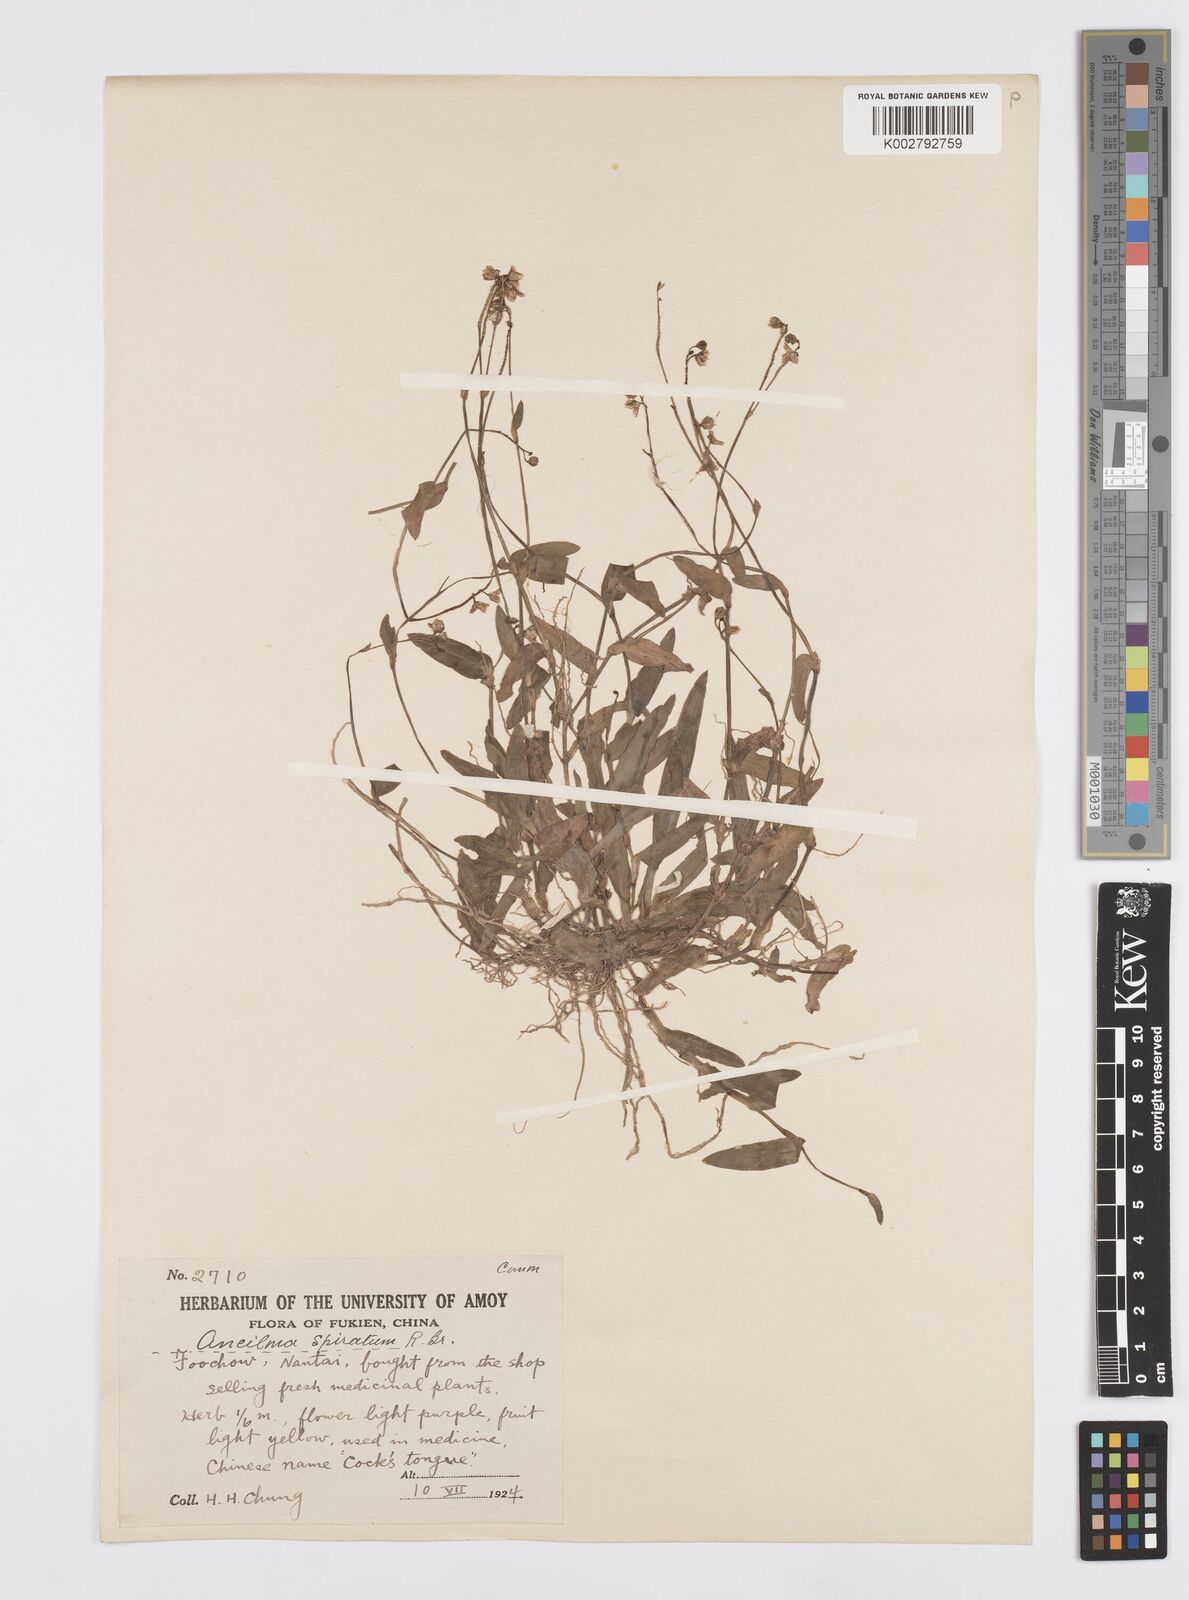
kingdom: Plantae
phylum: Tracheophyta
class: Liliopsida
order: Commelinales
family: Commelinaceae
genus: Murdannia
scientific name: Murdannia
